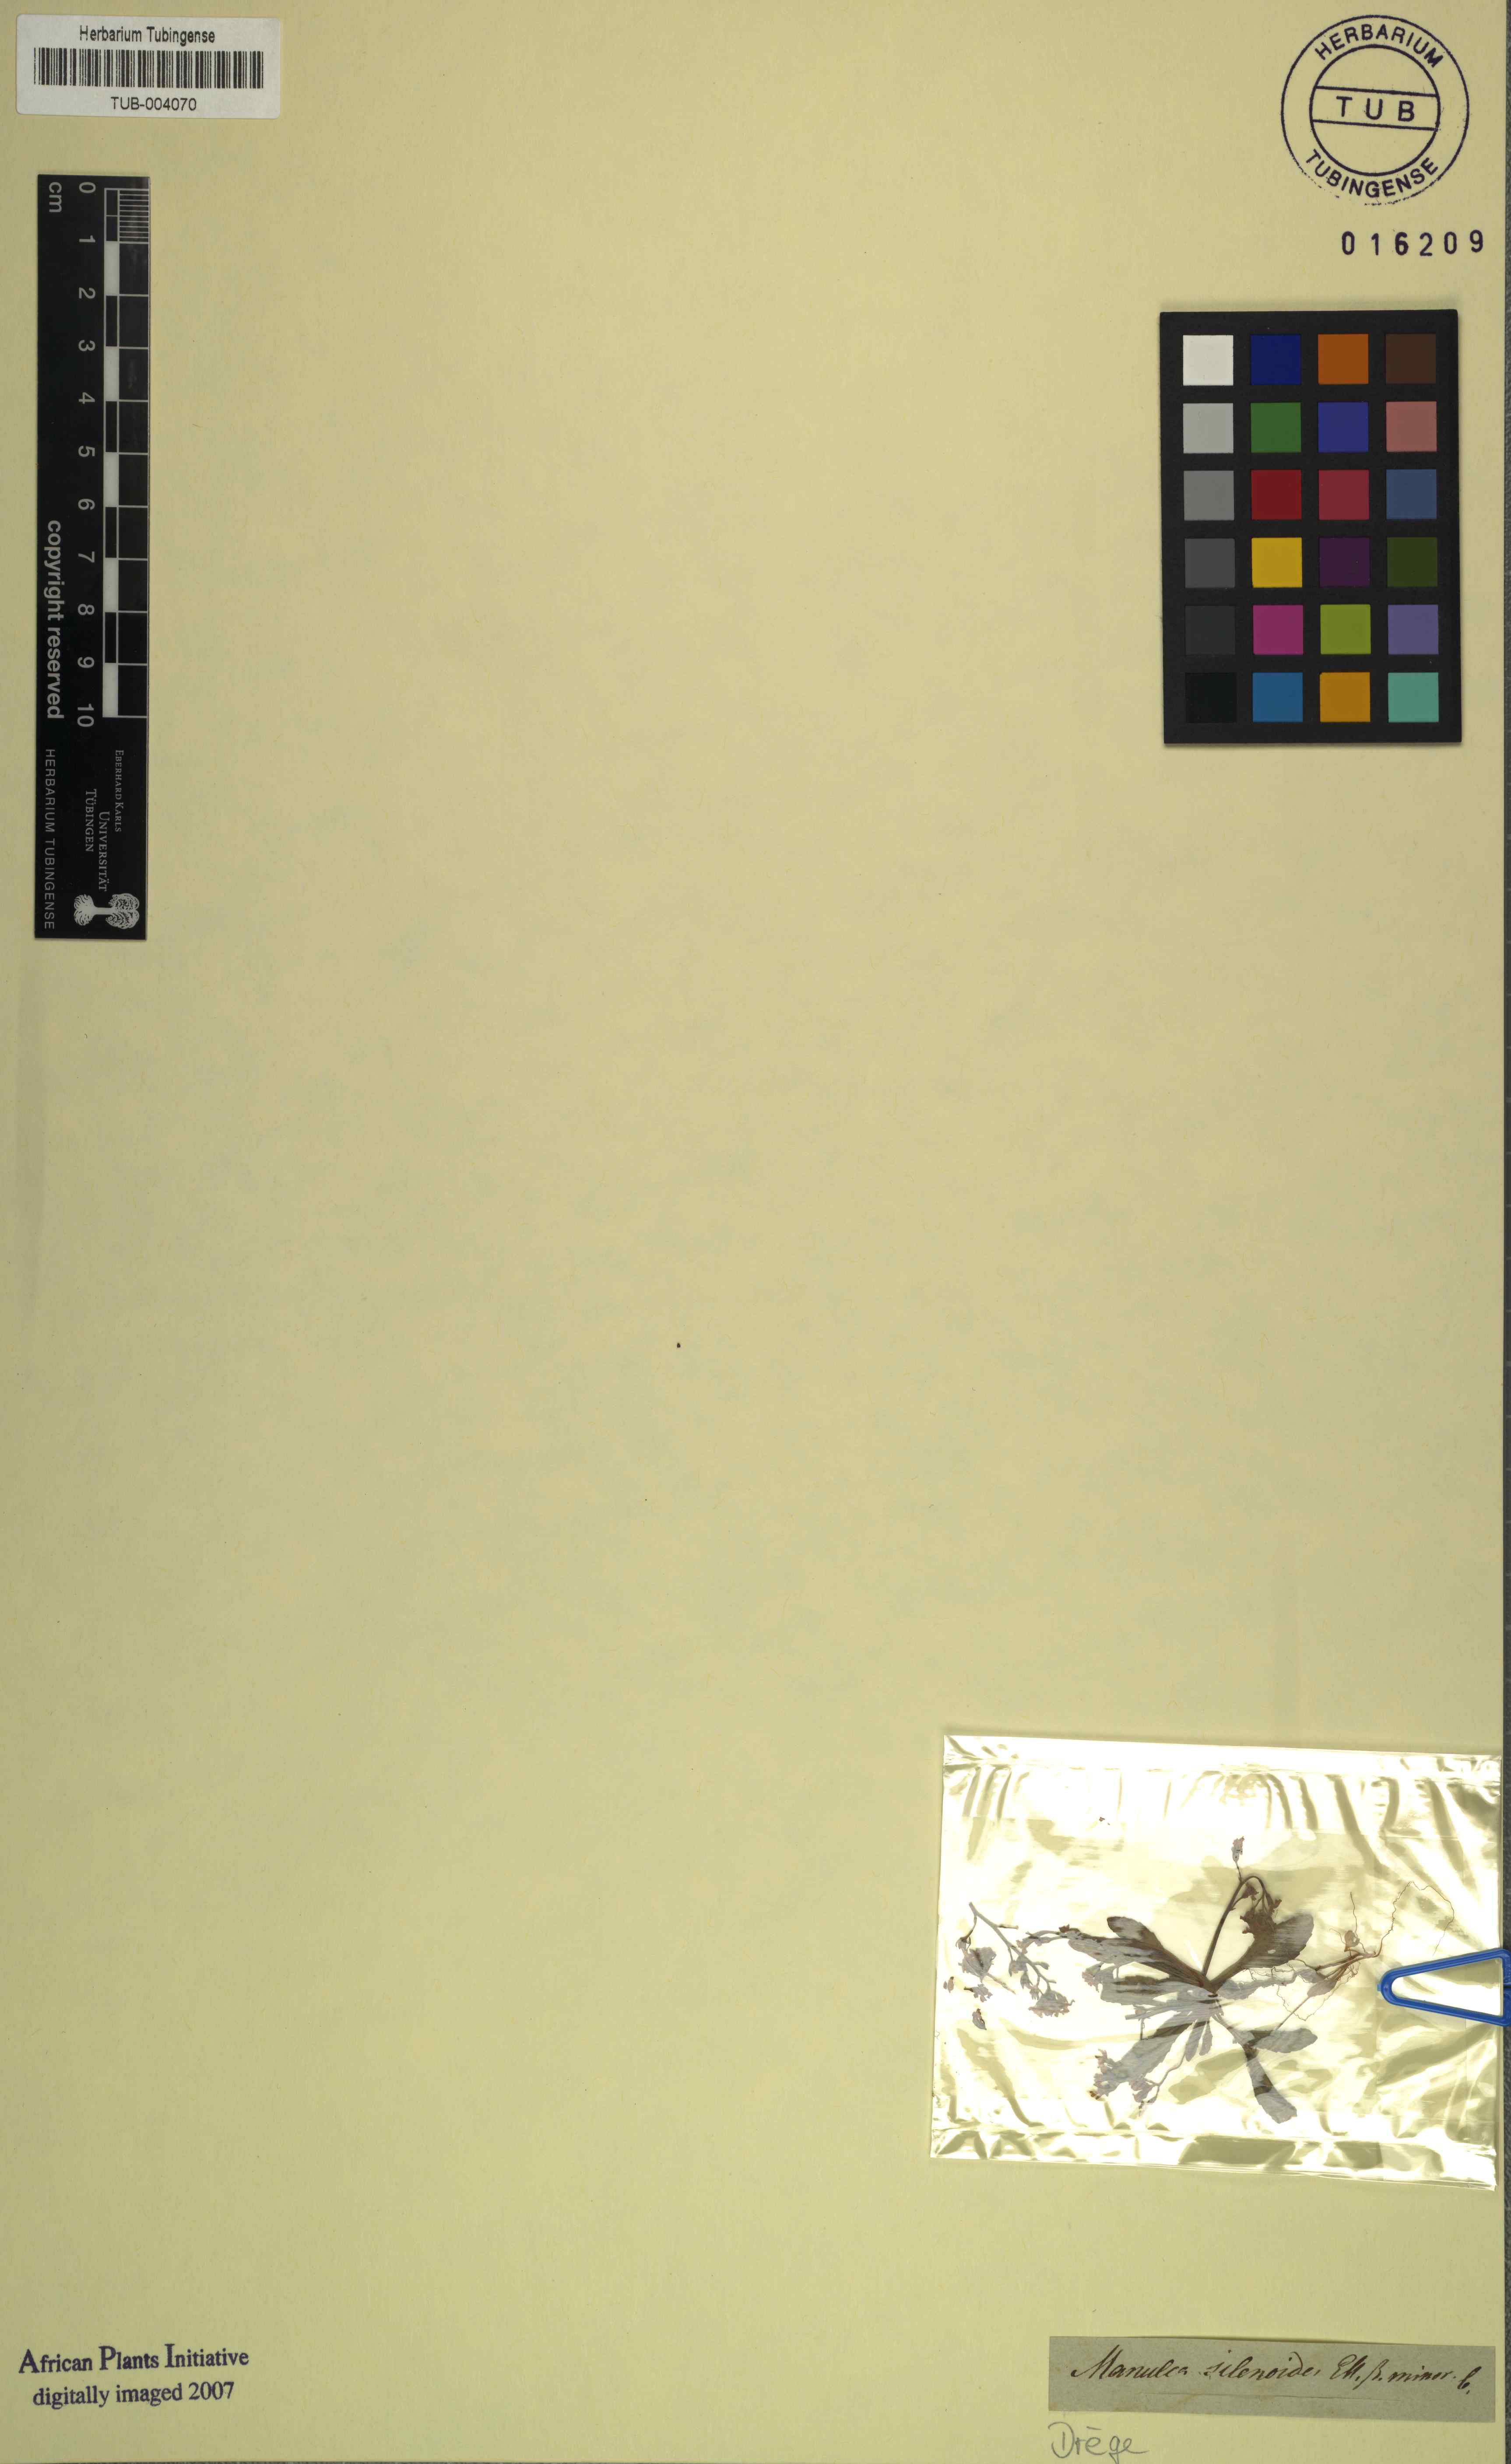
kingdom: Plantae
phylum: Tracheophyta
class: Magnoliopsida
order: Lamiales
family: Scrophulariaceae
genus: Manulea
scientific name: Manulea silenioides
